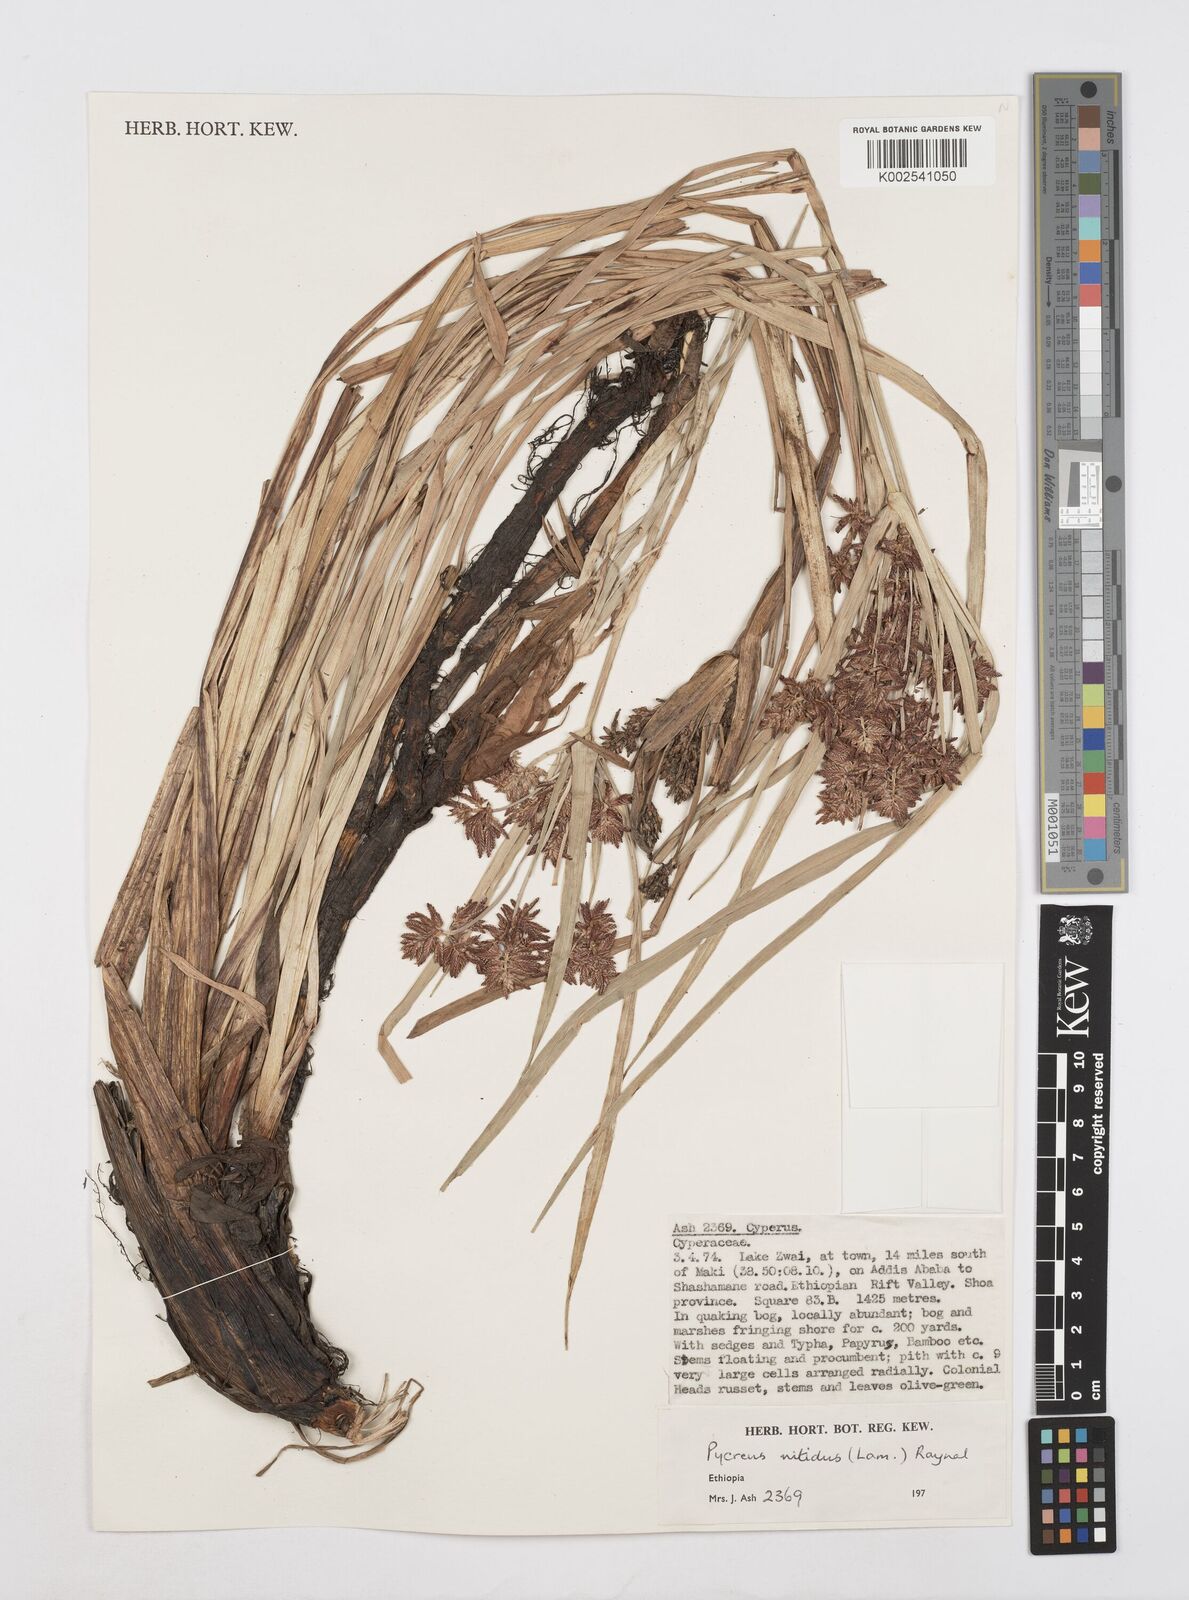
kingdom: Plantae
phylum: Tracheophyta
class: Liliopsida
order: Poales
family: Cyperaceae
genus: Cyperus
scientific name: Cyperus nitidus
